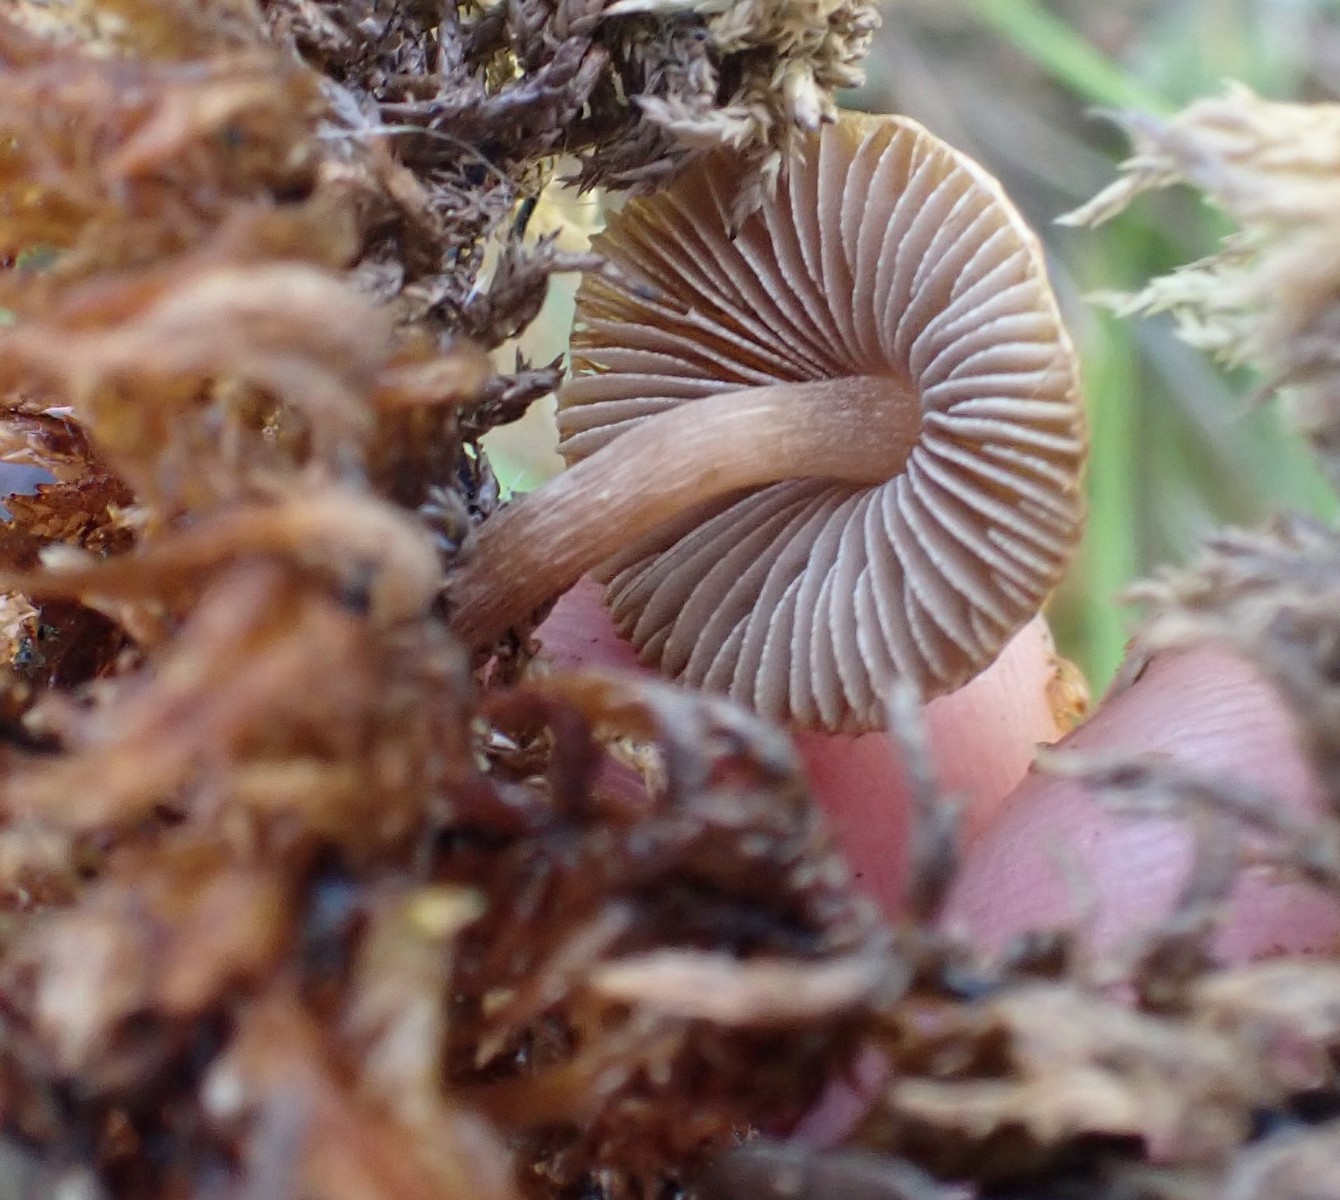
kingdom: Fungi
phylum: Basidiomycota
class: Agaricomycetes
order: Agaricales
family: Inocybaceae
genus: Inocybe
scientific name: Inocybe acuta
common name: papil-trævlhat
